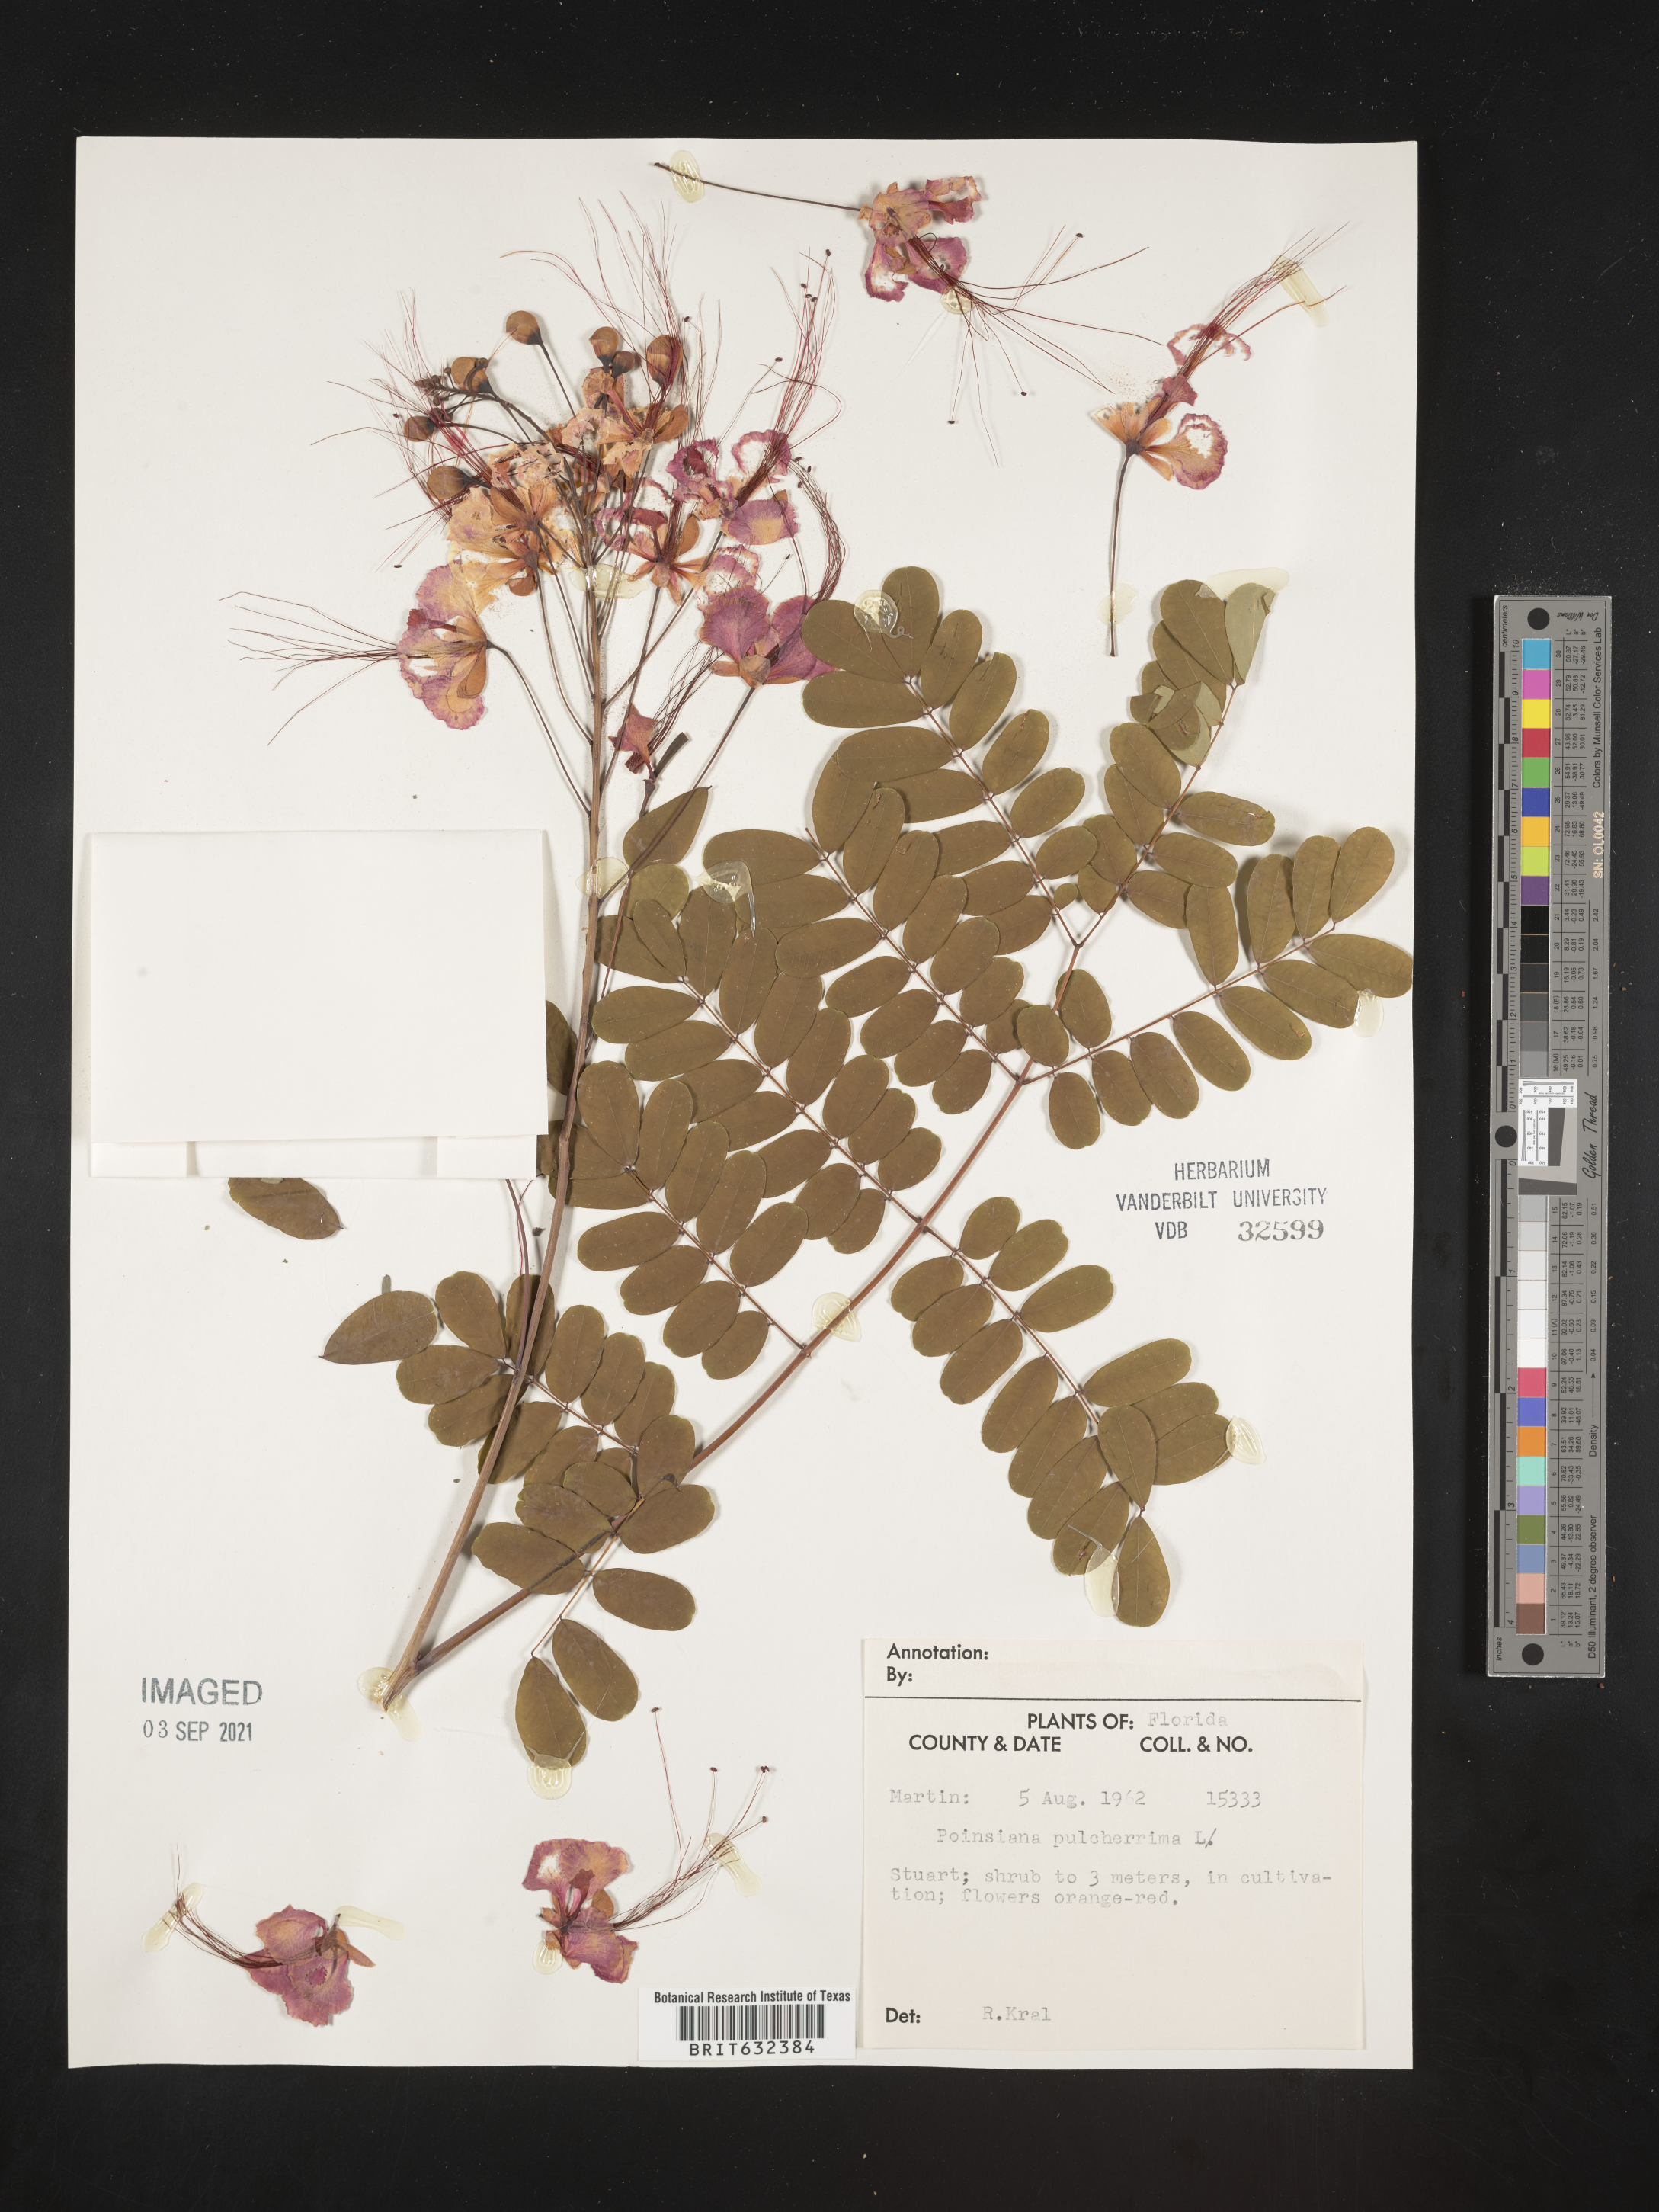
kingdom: Plantae
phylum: Tracheophyta
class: Magnoliopsida
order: Fabales
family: Fabaceae
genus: Caesalpinia
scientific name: Caesalpinia
